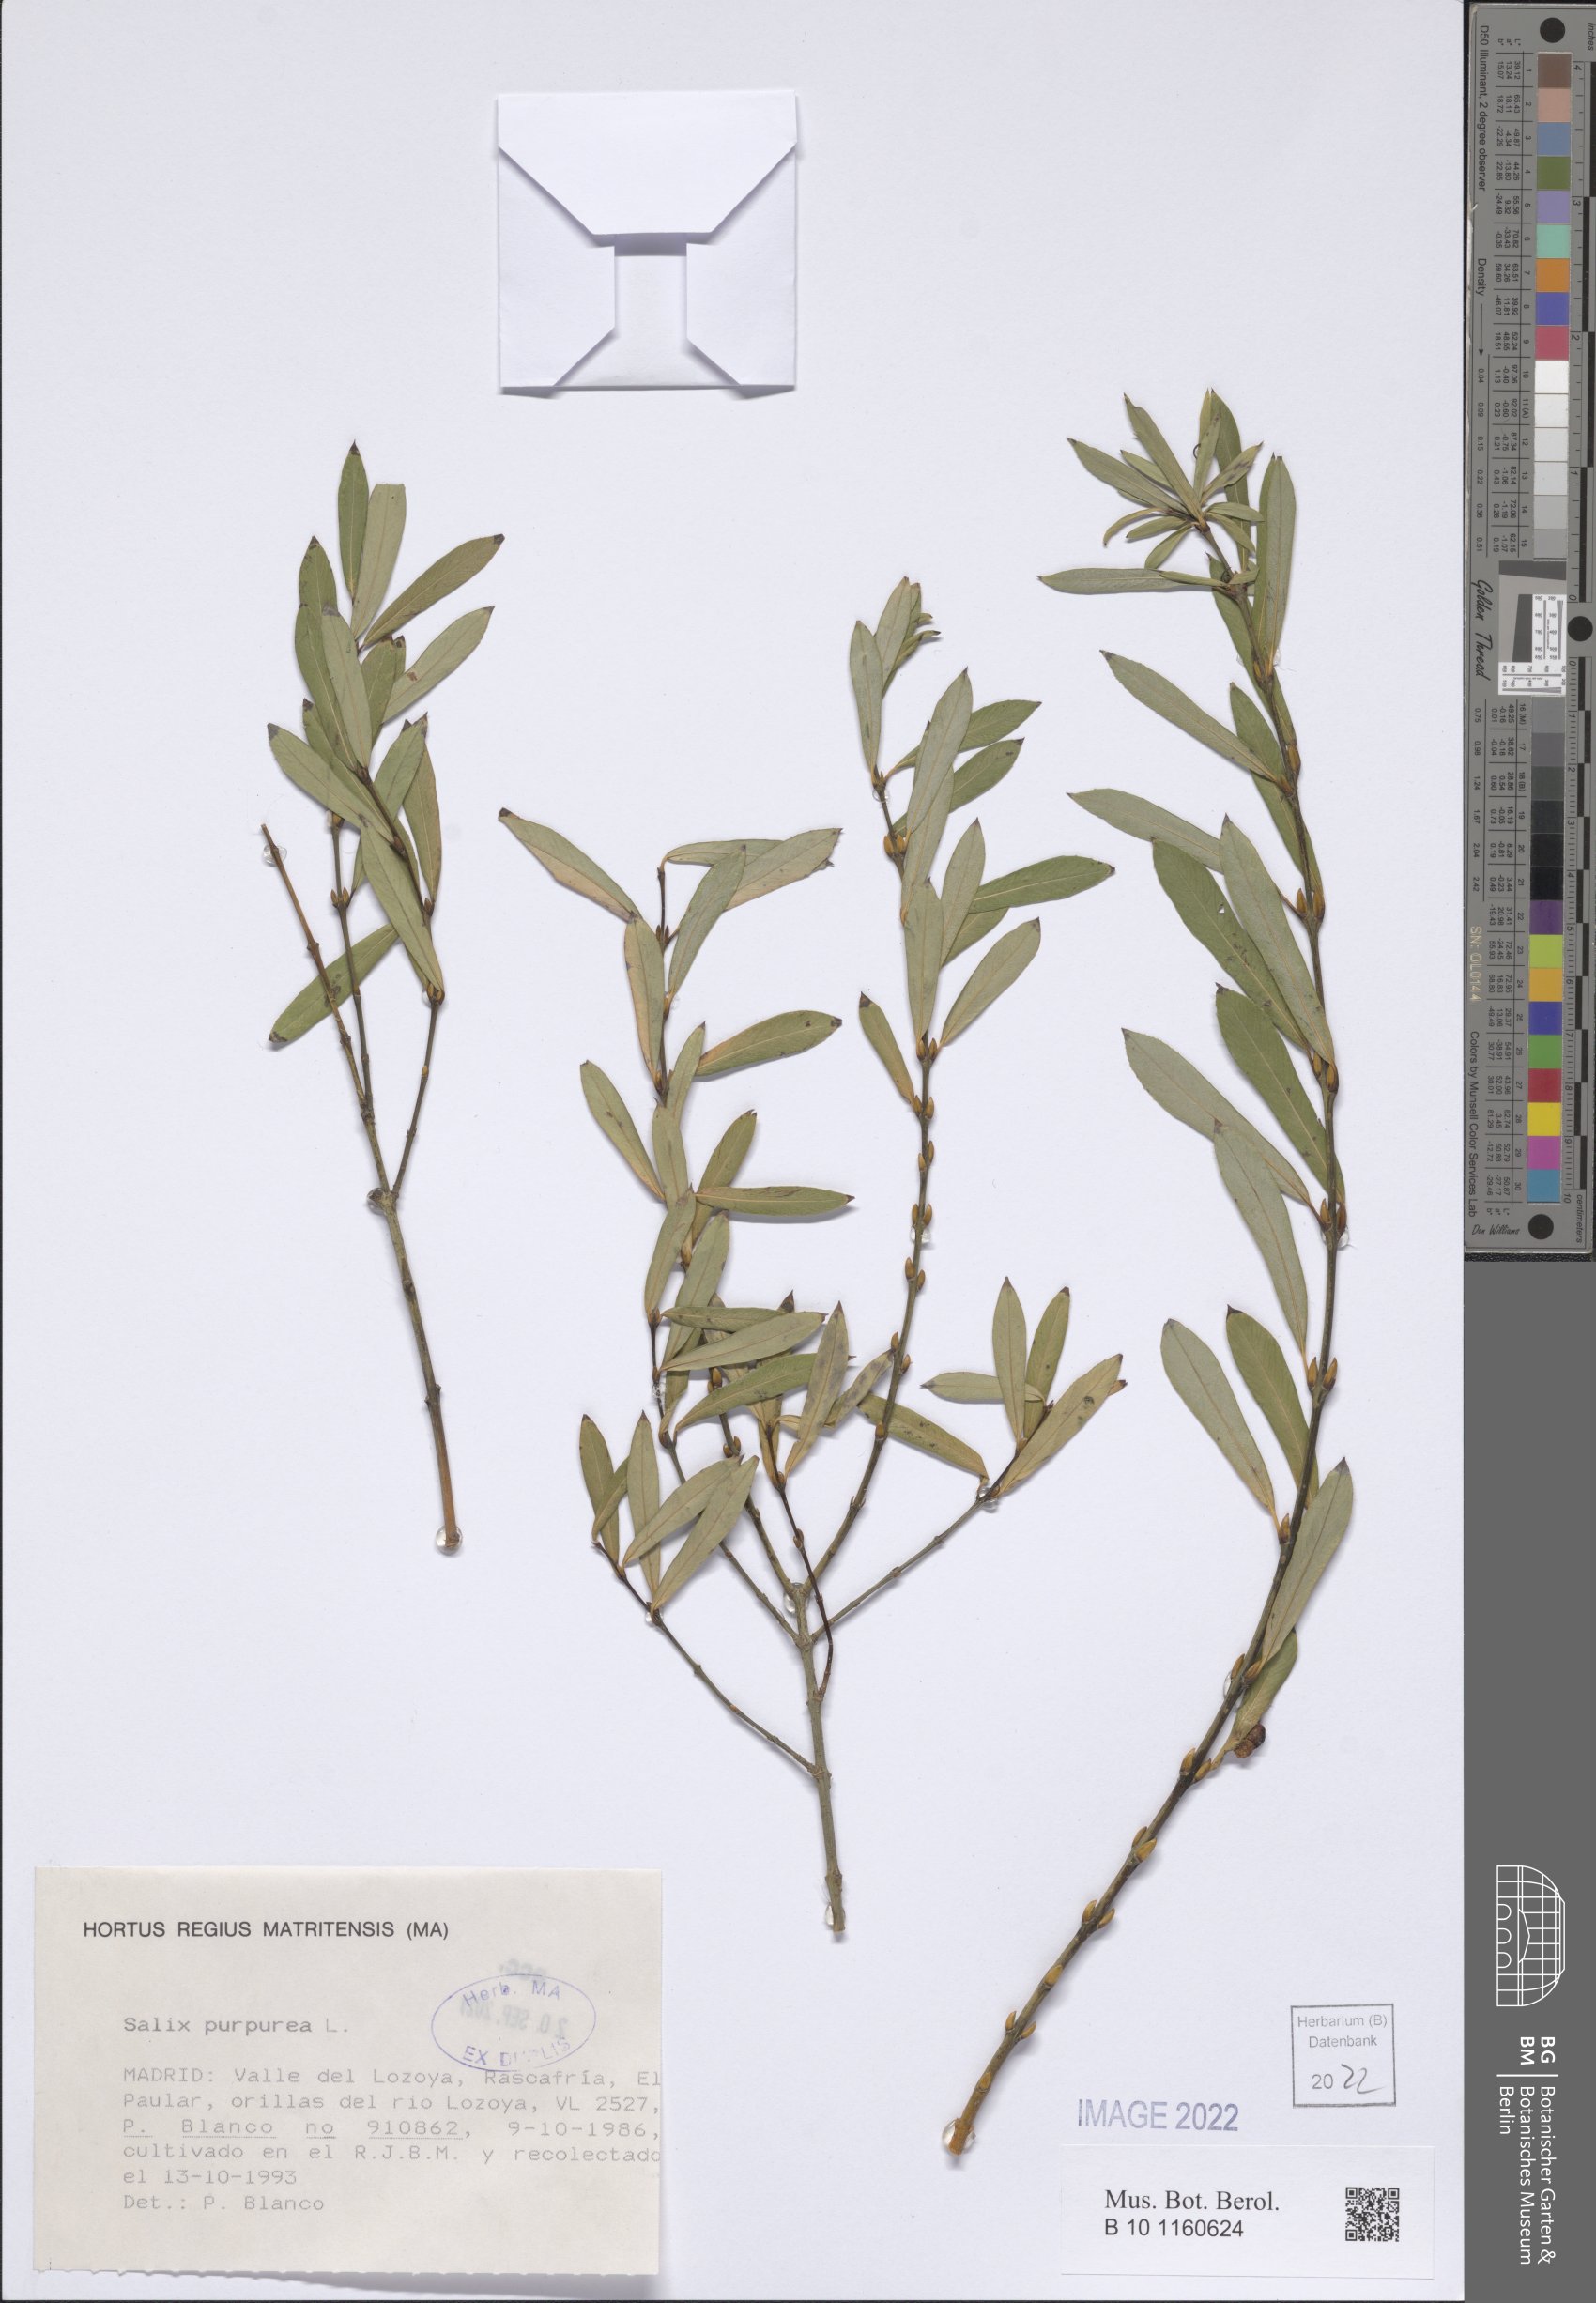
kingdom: Plantae
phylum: Tracheophyta
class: Magnoliopsida
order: Malpighiales
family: Salicaceae
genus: Salix
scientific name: Salix purpurea
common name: Purple willow
